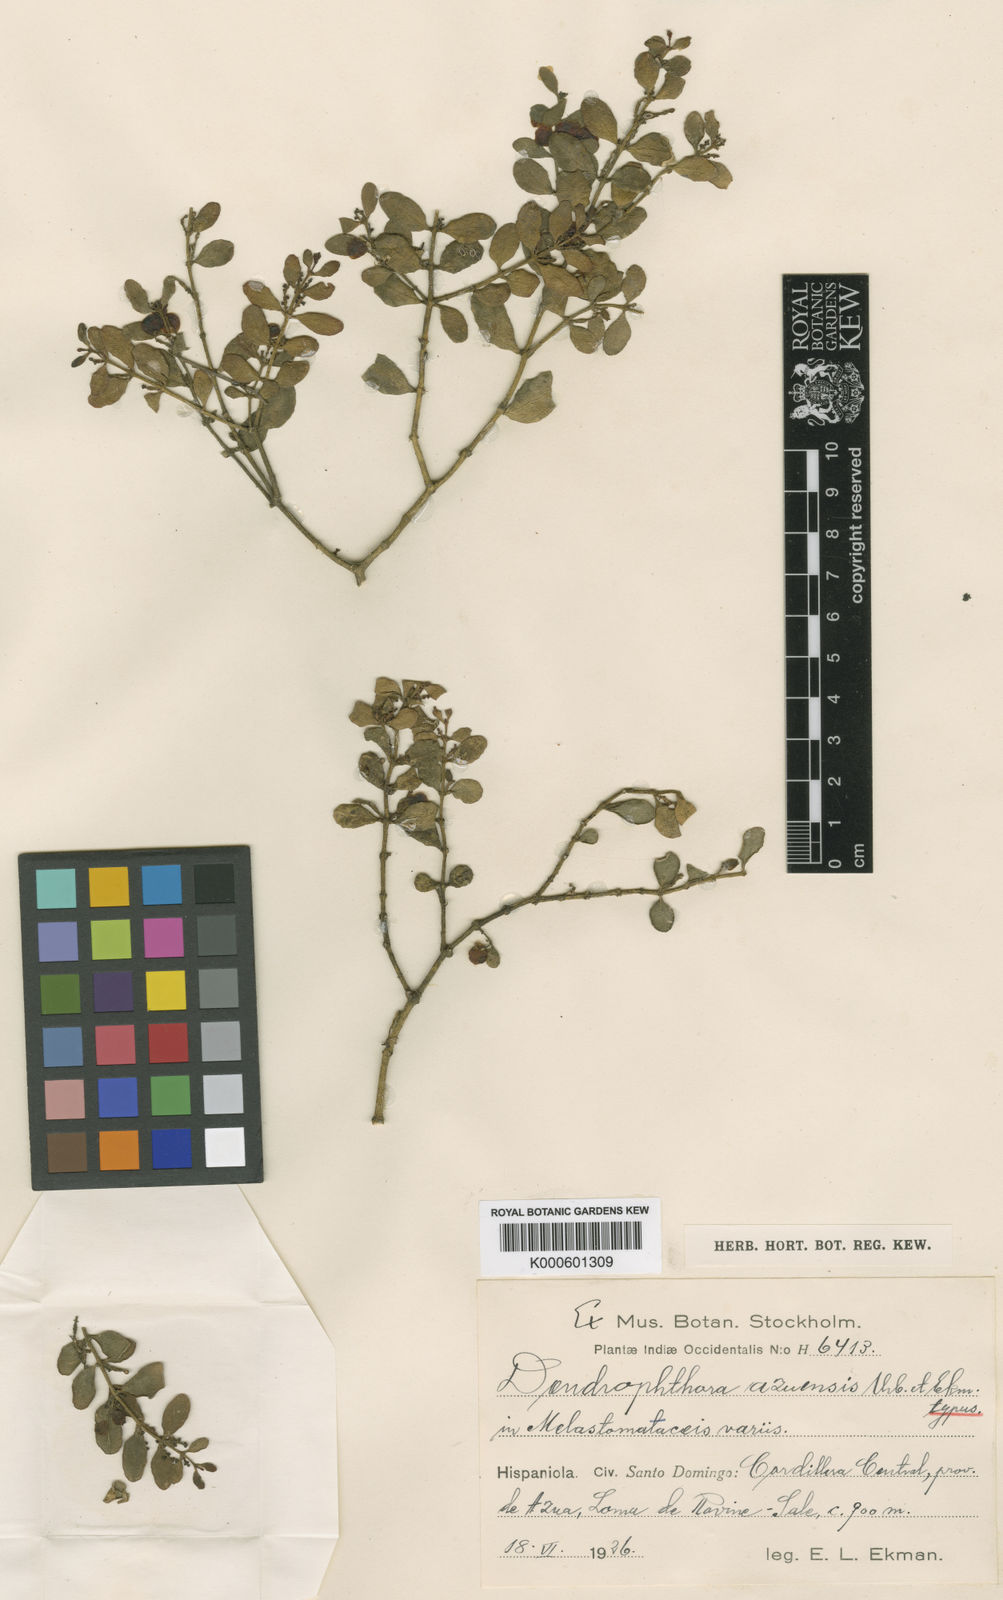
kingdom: Plantae
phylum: Tracheophyta
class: Magnoliopsida
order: Santalales
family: Viscaceae
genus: Dendrophthora
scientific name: Dendrophthora cubensis
